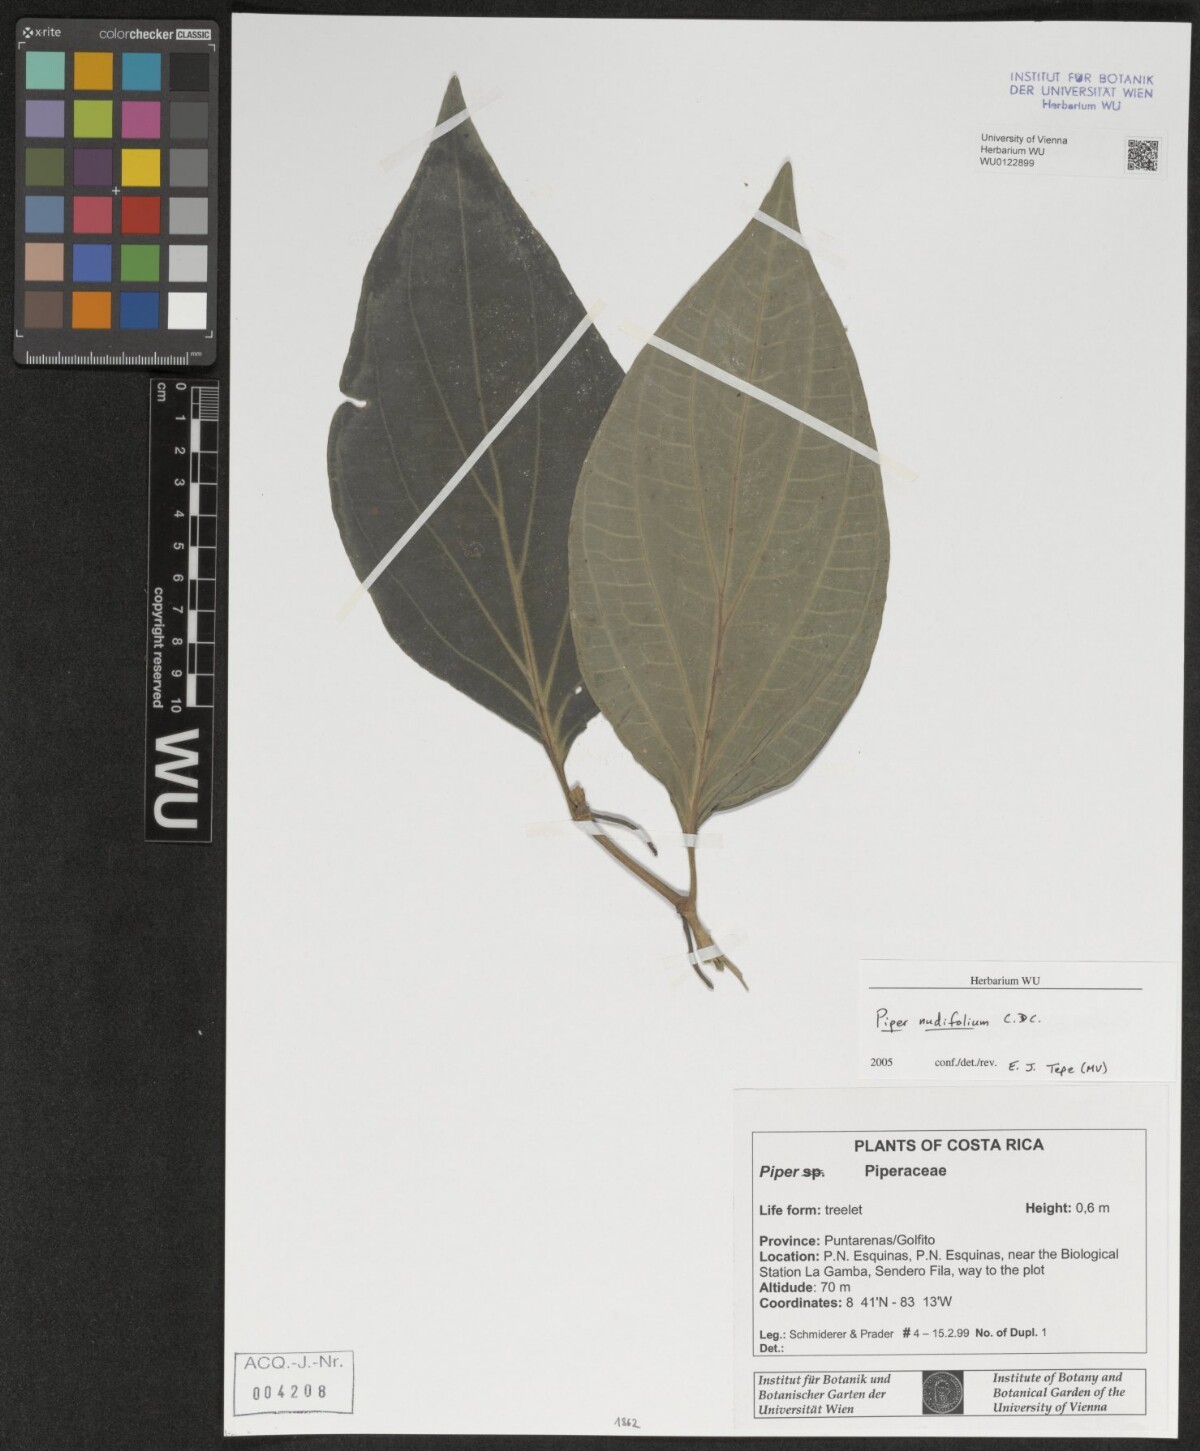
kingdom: Plantae
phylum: Tracheophyta
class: Magnoliopsida
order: Piperales
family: Piperaceae
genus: Piper
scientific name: Piper nudifolium
